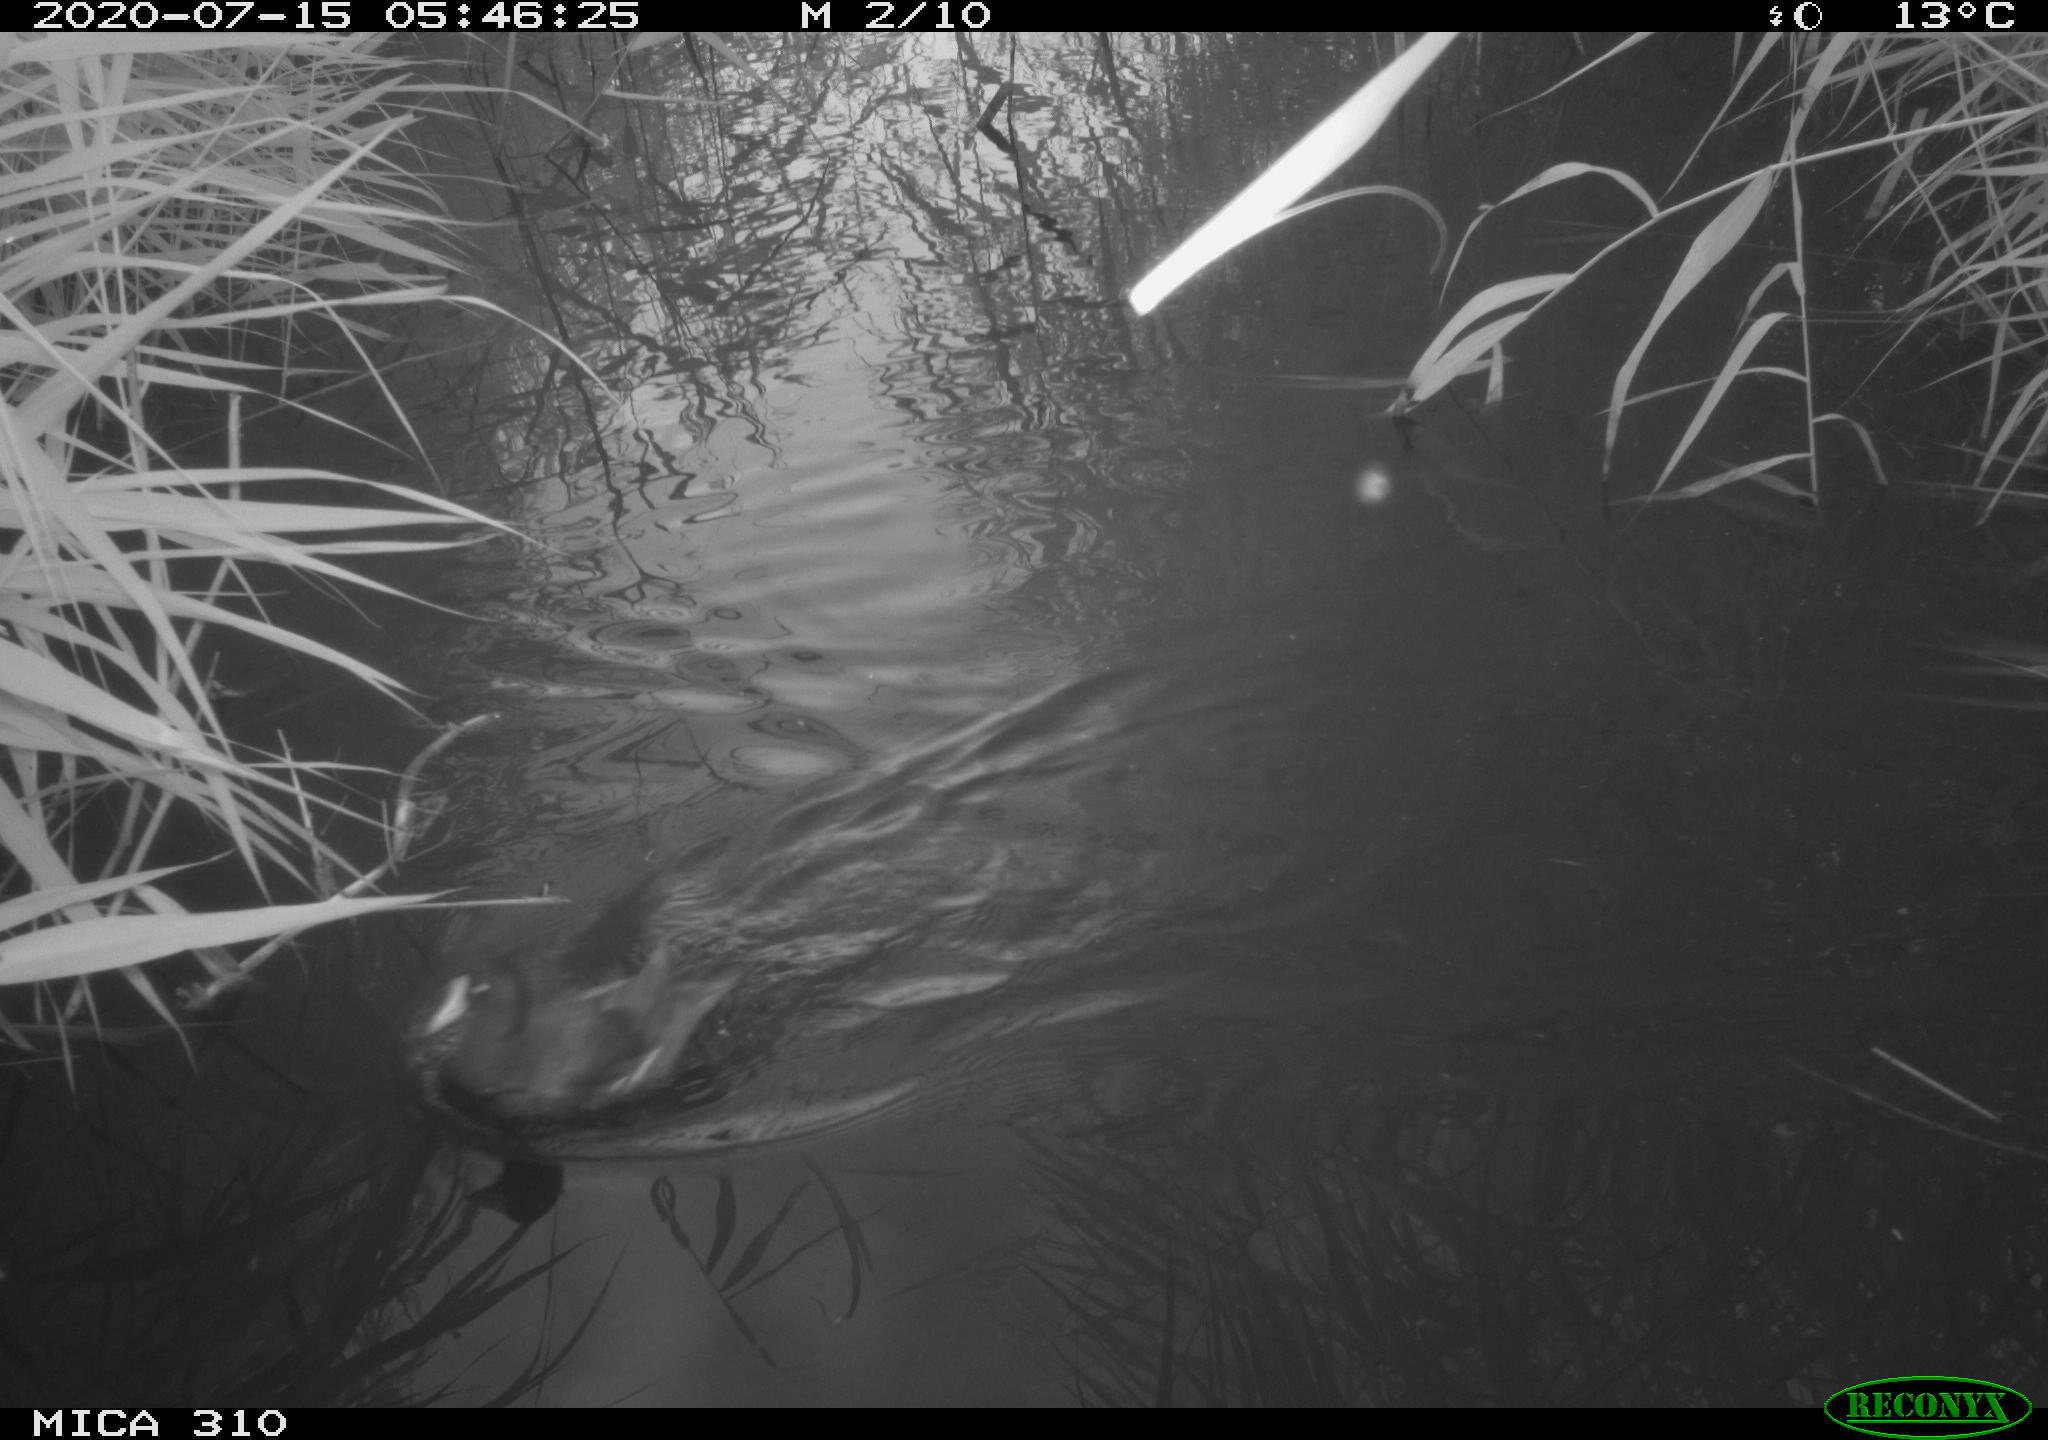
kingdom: Animalia
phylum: Chordata
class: Aves
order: Gruiformes
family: Rallidae
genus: Gallinula
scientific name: Gallinula chloropus
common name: Common moorhen
